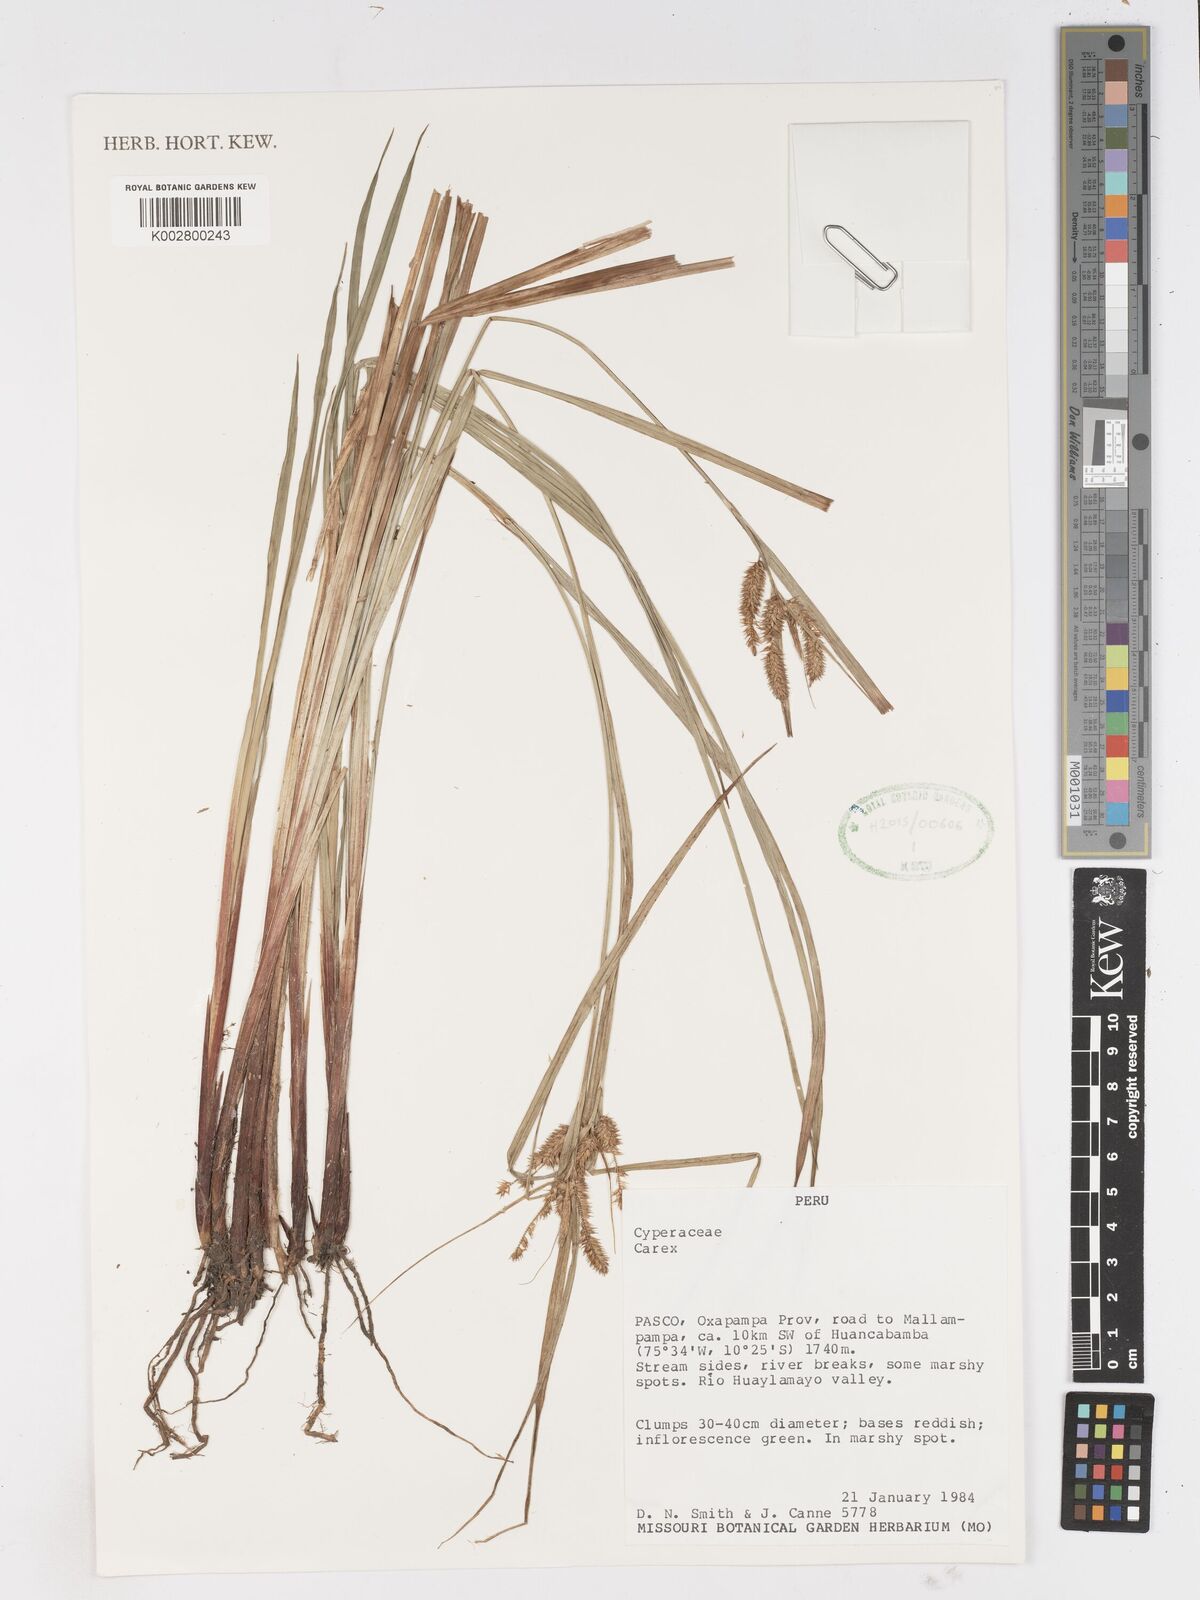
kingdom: Plantae
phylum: Tracheophyta
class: Liliopsida
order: Poales
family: Cyperaceae
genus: Carex
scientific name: Carex
